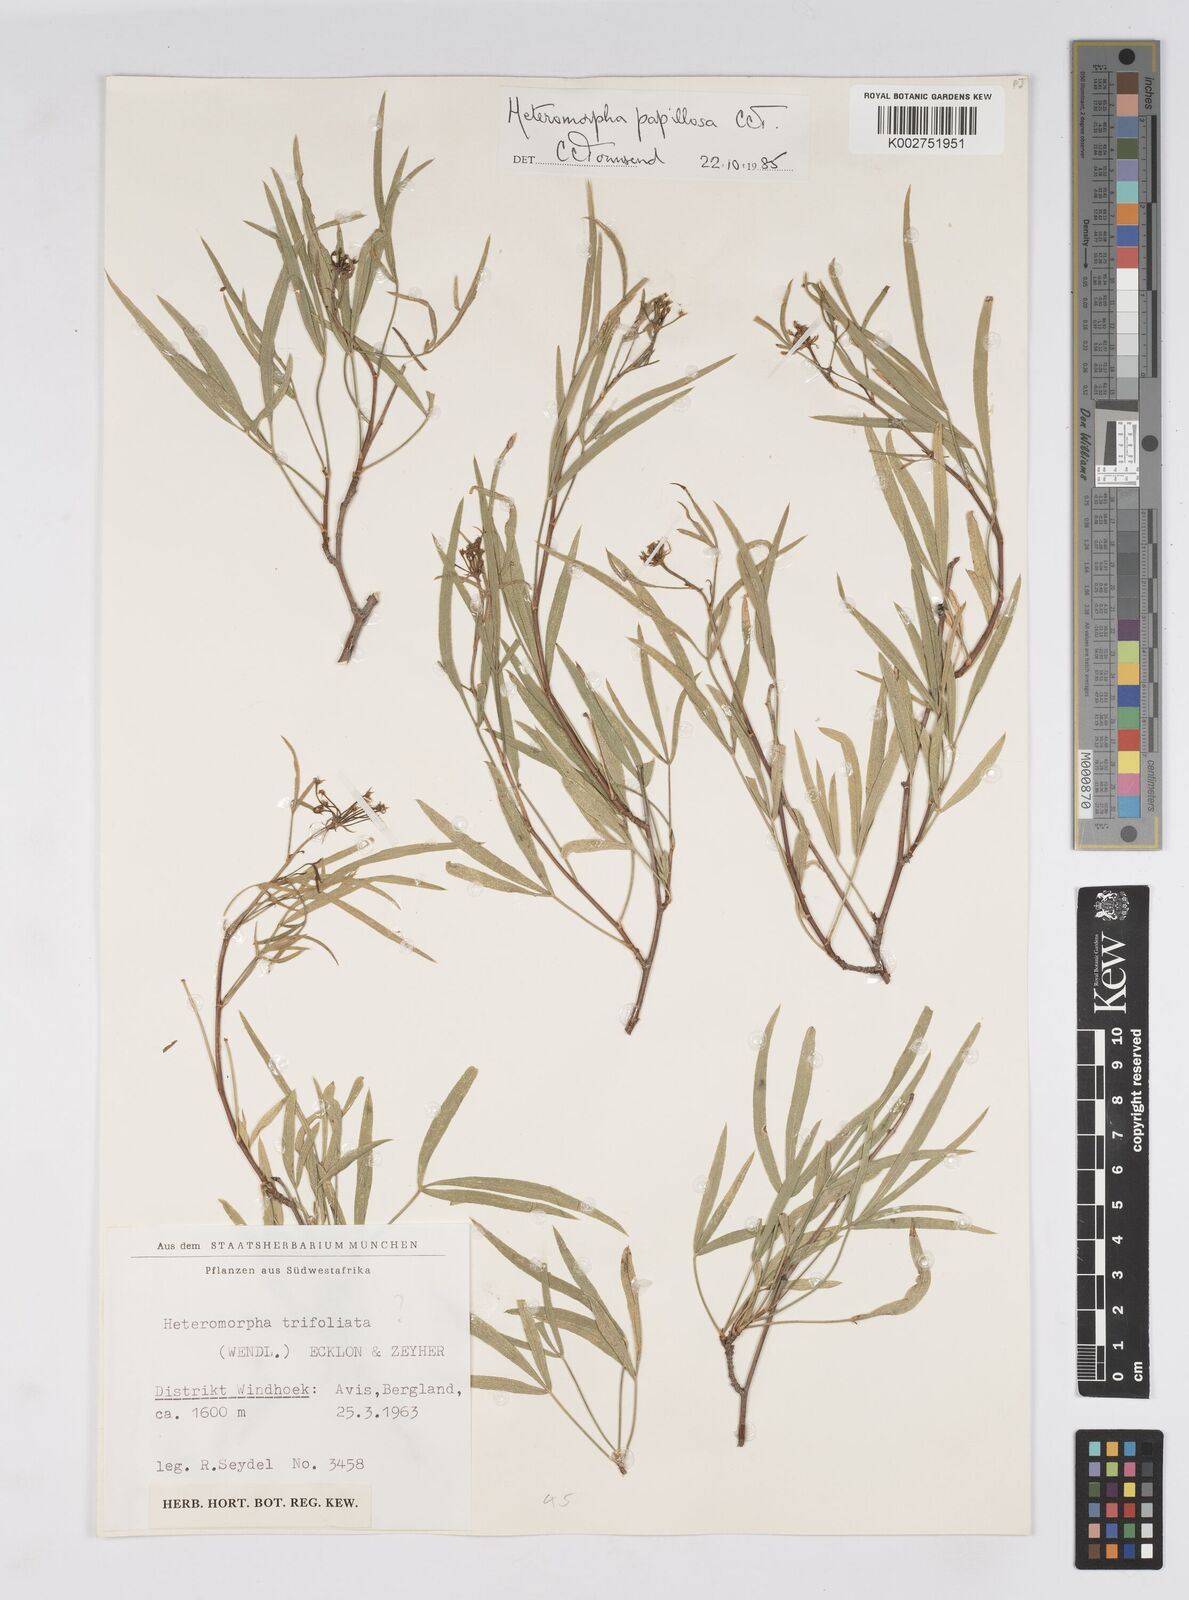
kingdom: Plantae
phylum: Tracheophyta
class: Magnoliopsida
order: Apiales
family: Apiaceae
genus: Heteromorpha
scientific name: Heteromorpha papillosa
